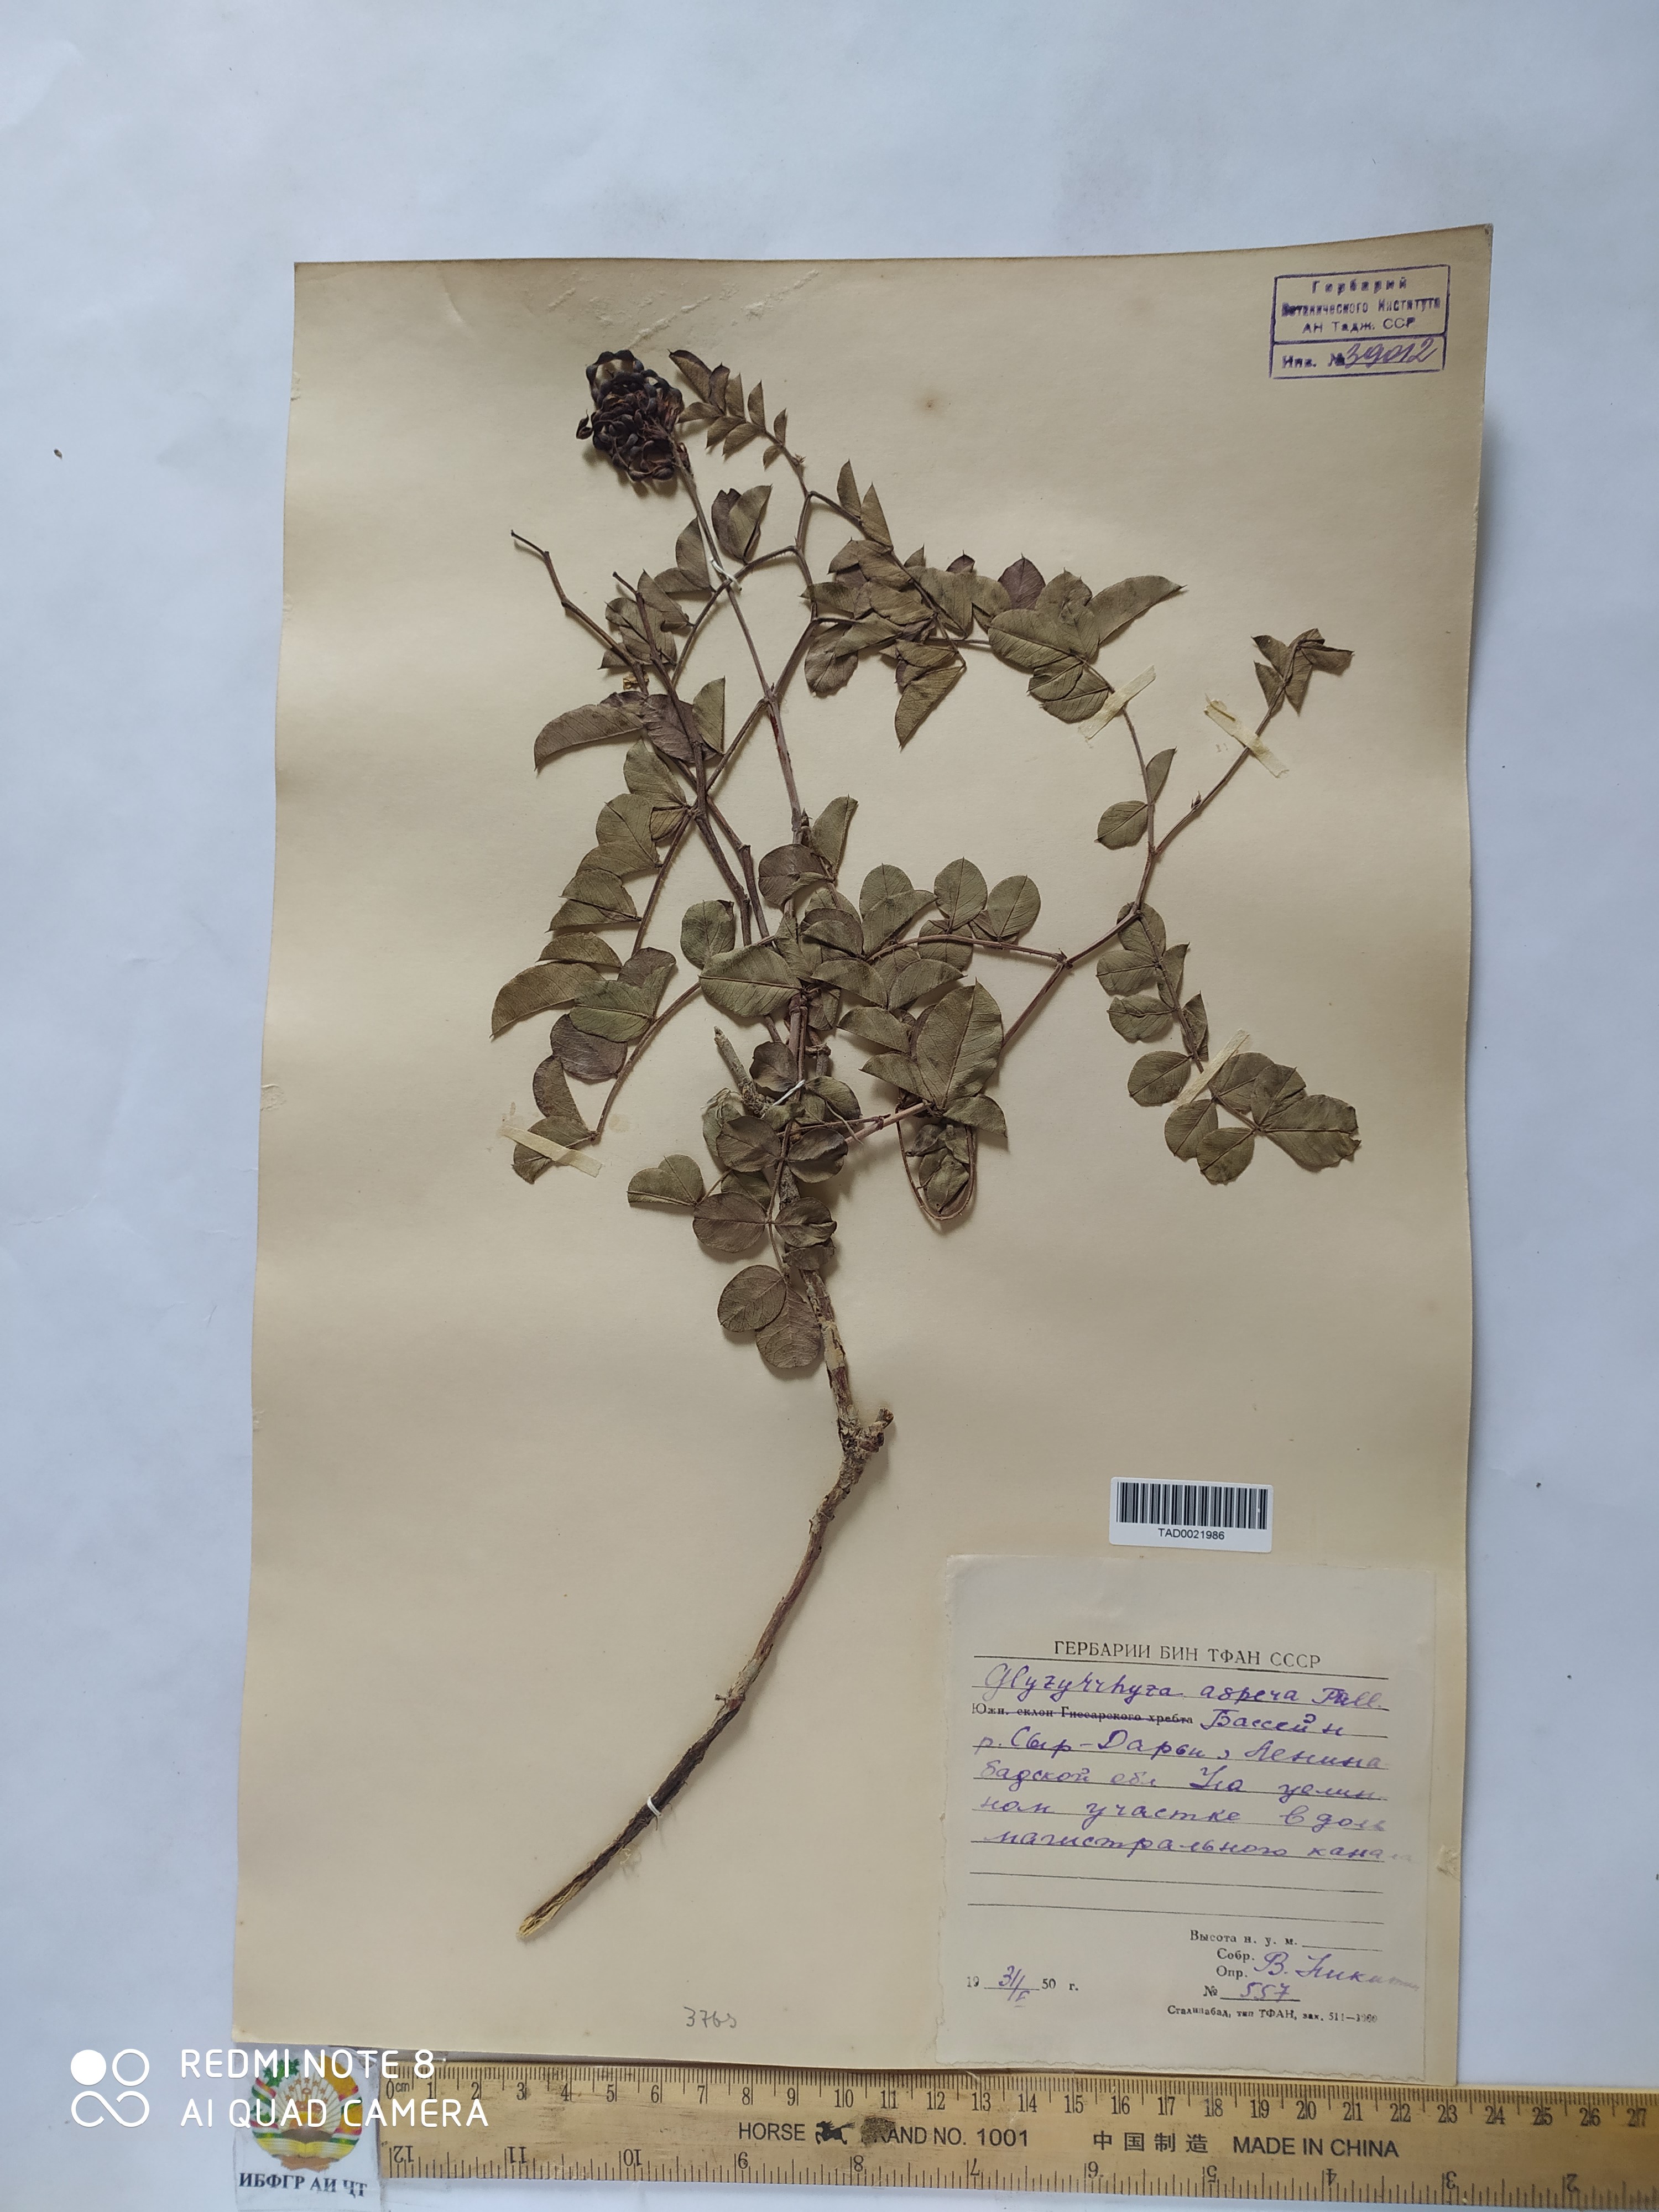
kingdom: Plantae
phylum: Tracheophyta
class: Magnoliopsida
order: Fabales
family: Fabaceae
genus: Glycyrrhiza
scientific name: Glycyrrhiza glabra
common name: Liquorice
